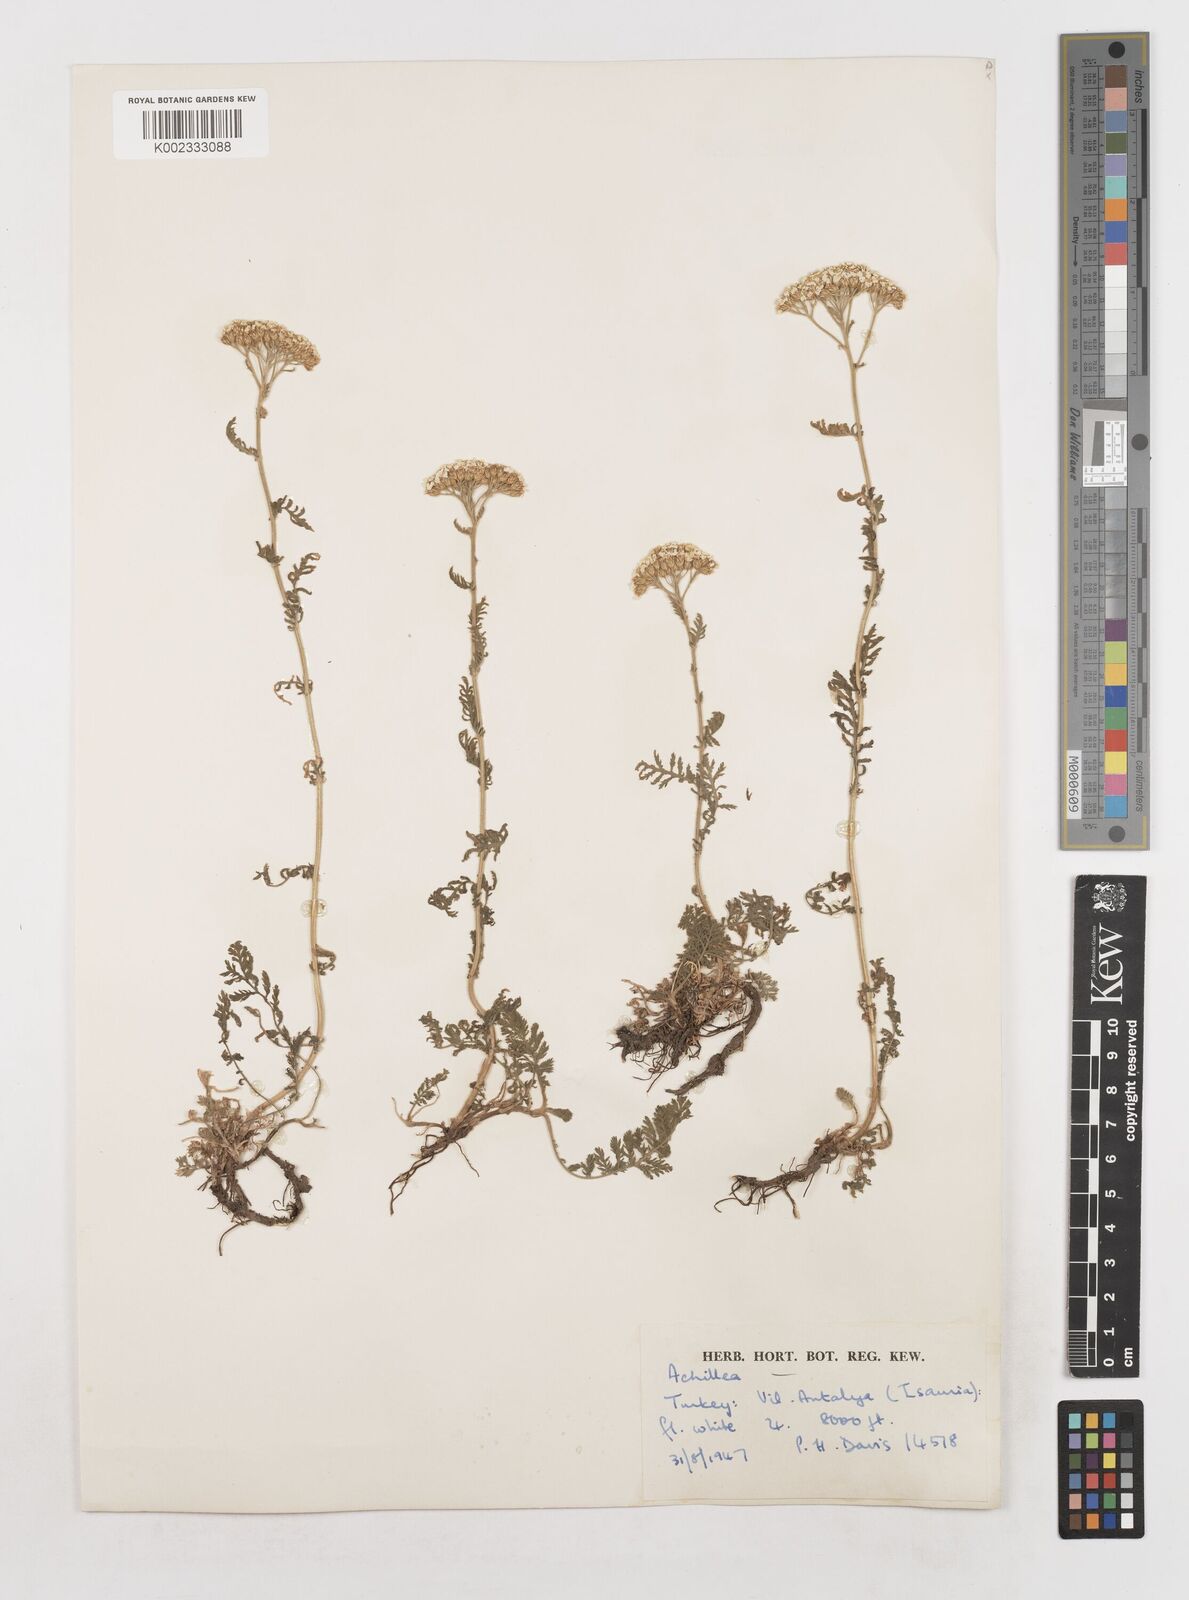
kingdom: Plantae
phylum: Tracheophyta
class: Magnoliopsida
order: Asterales
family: Asteraceae
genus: Achillea
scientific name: Achillea
